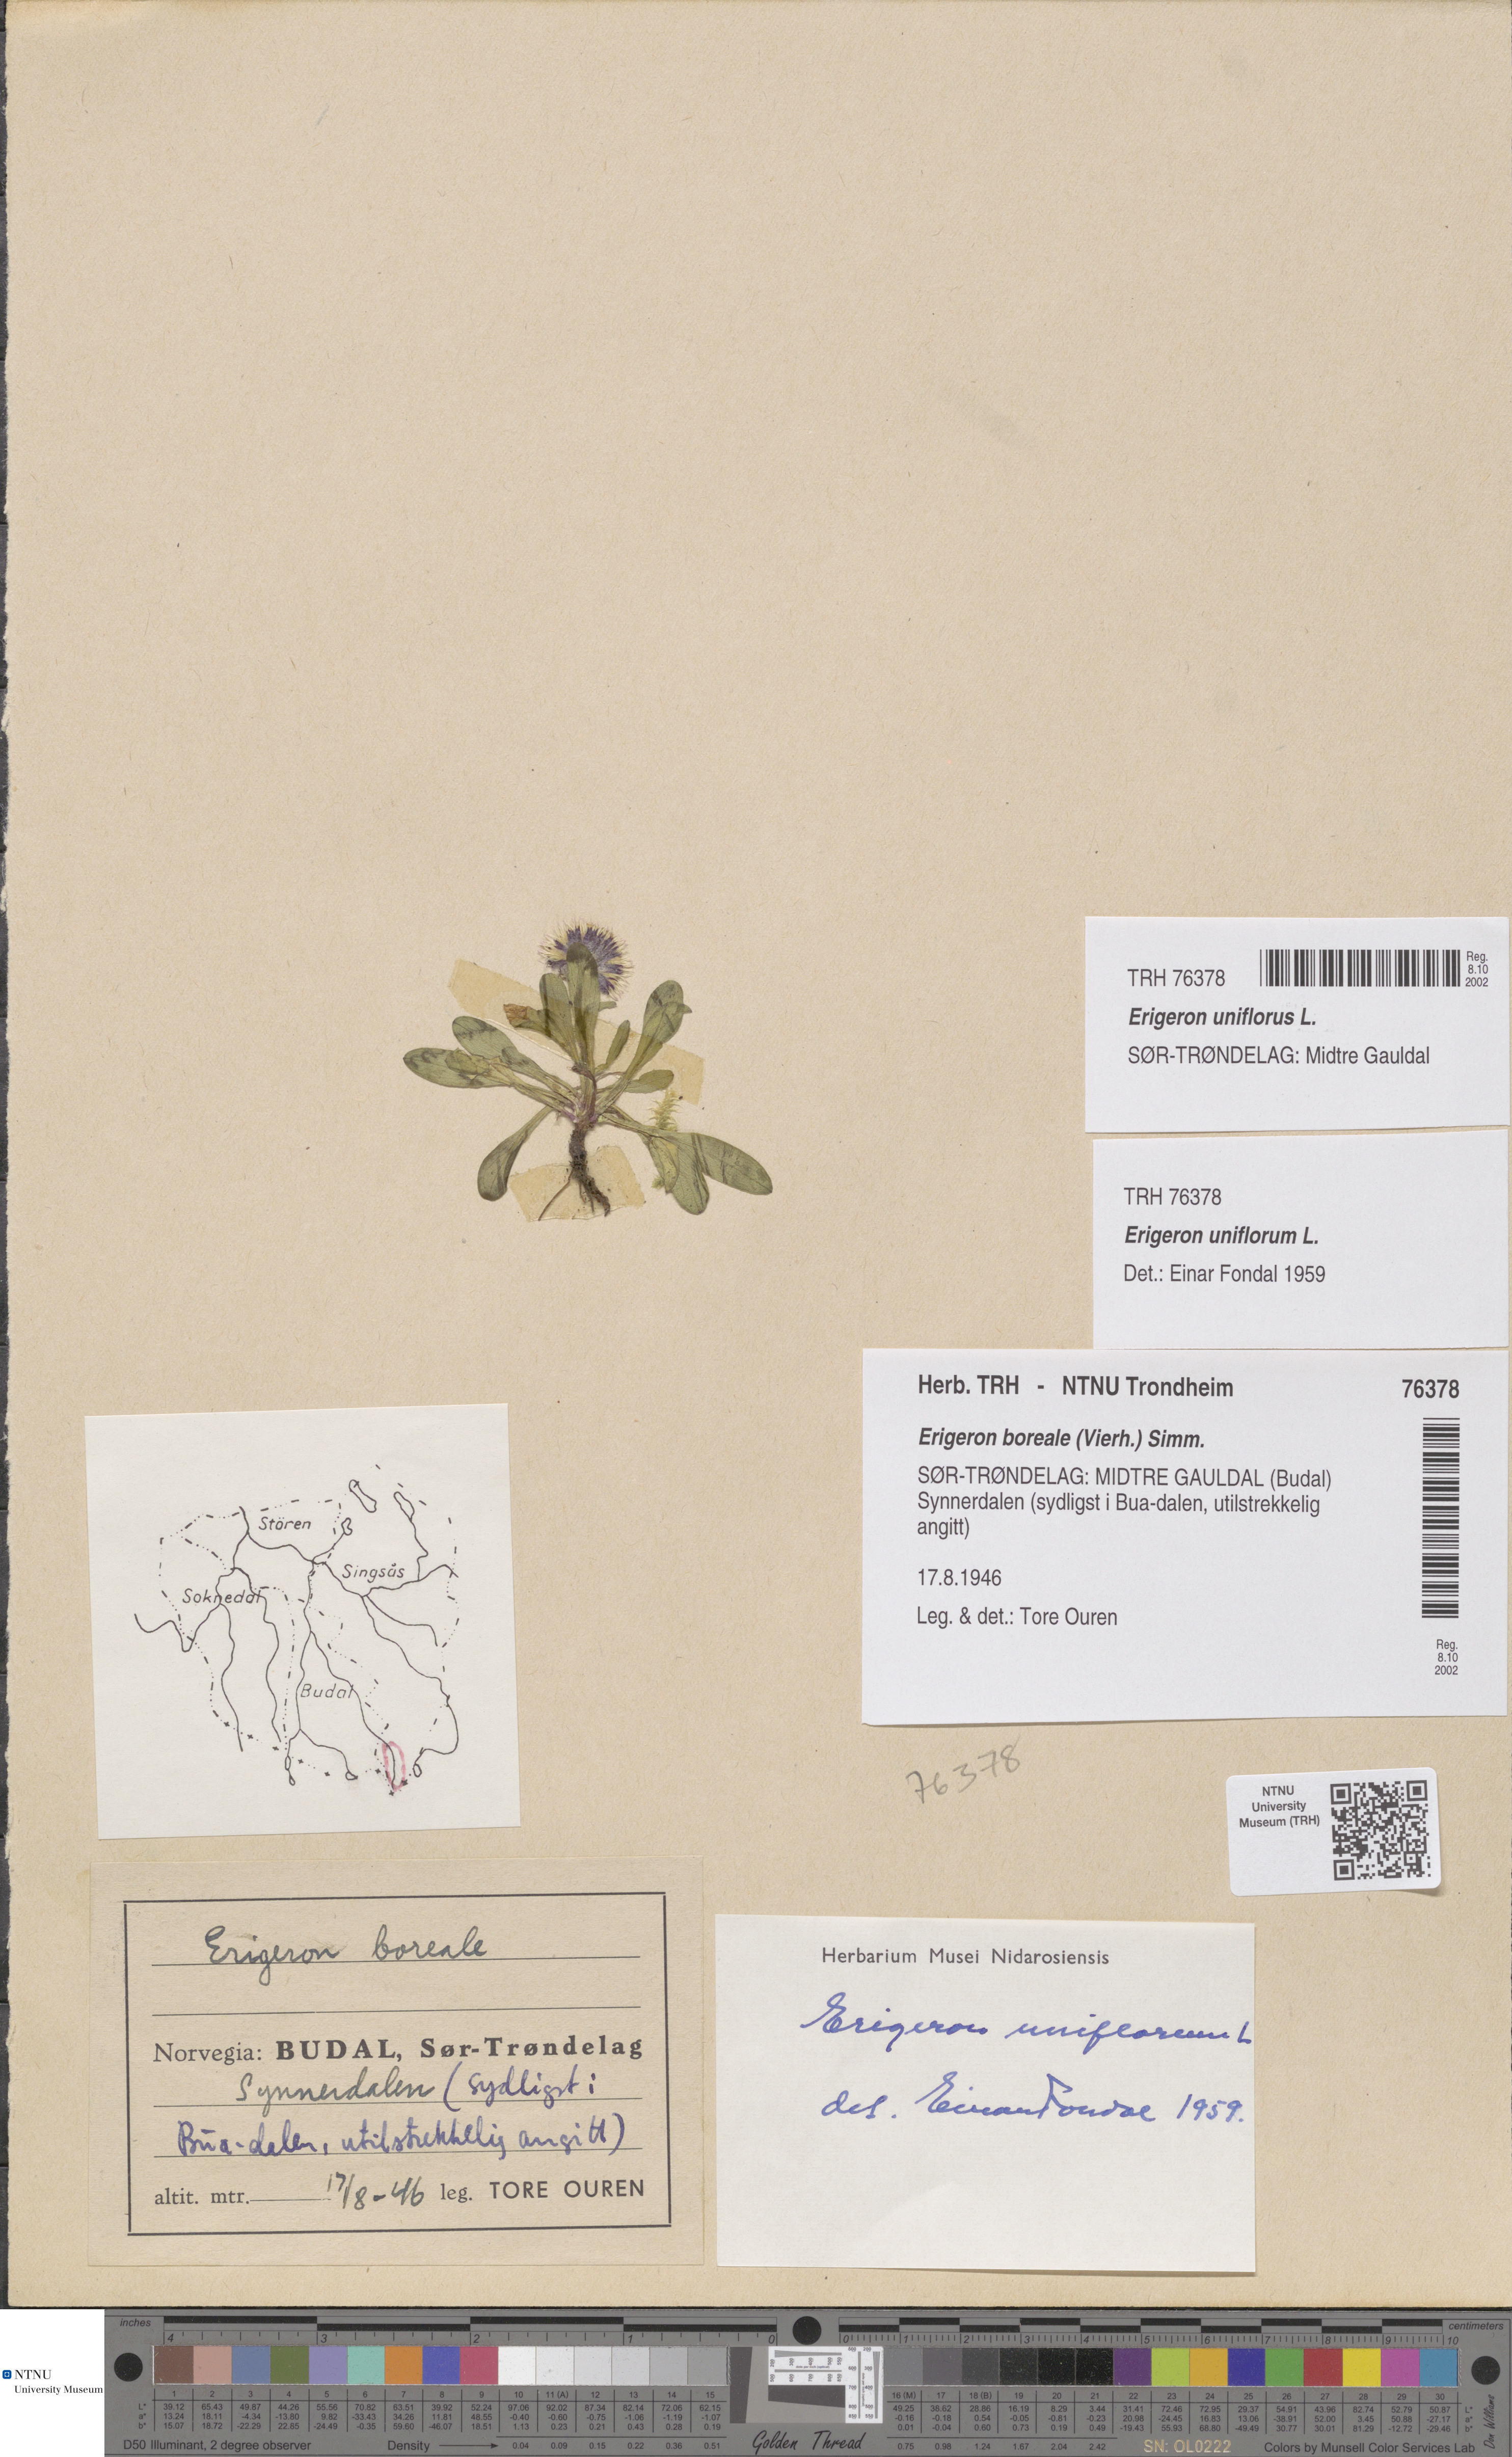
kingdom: Plantae
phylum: Tracheophyta
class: Magnoliopsida
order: Asterales
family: Asteraceae
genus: Erigeron
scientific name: Erigeron uniflorus
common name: Northern daisy
